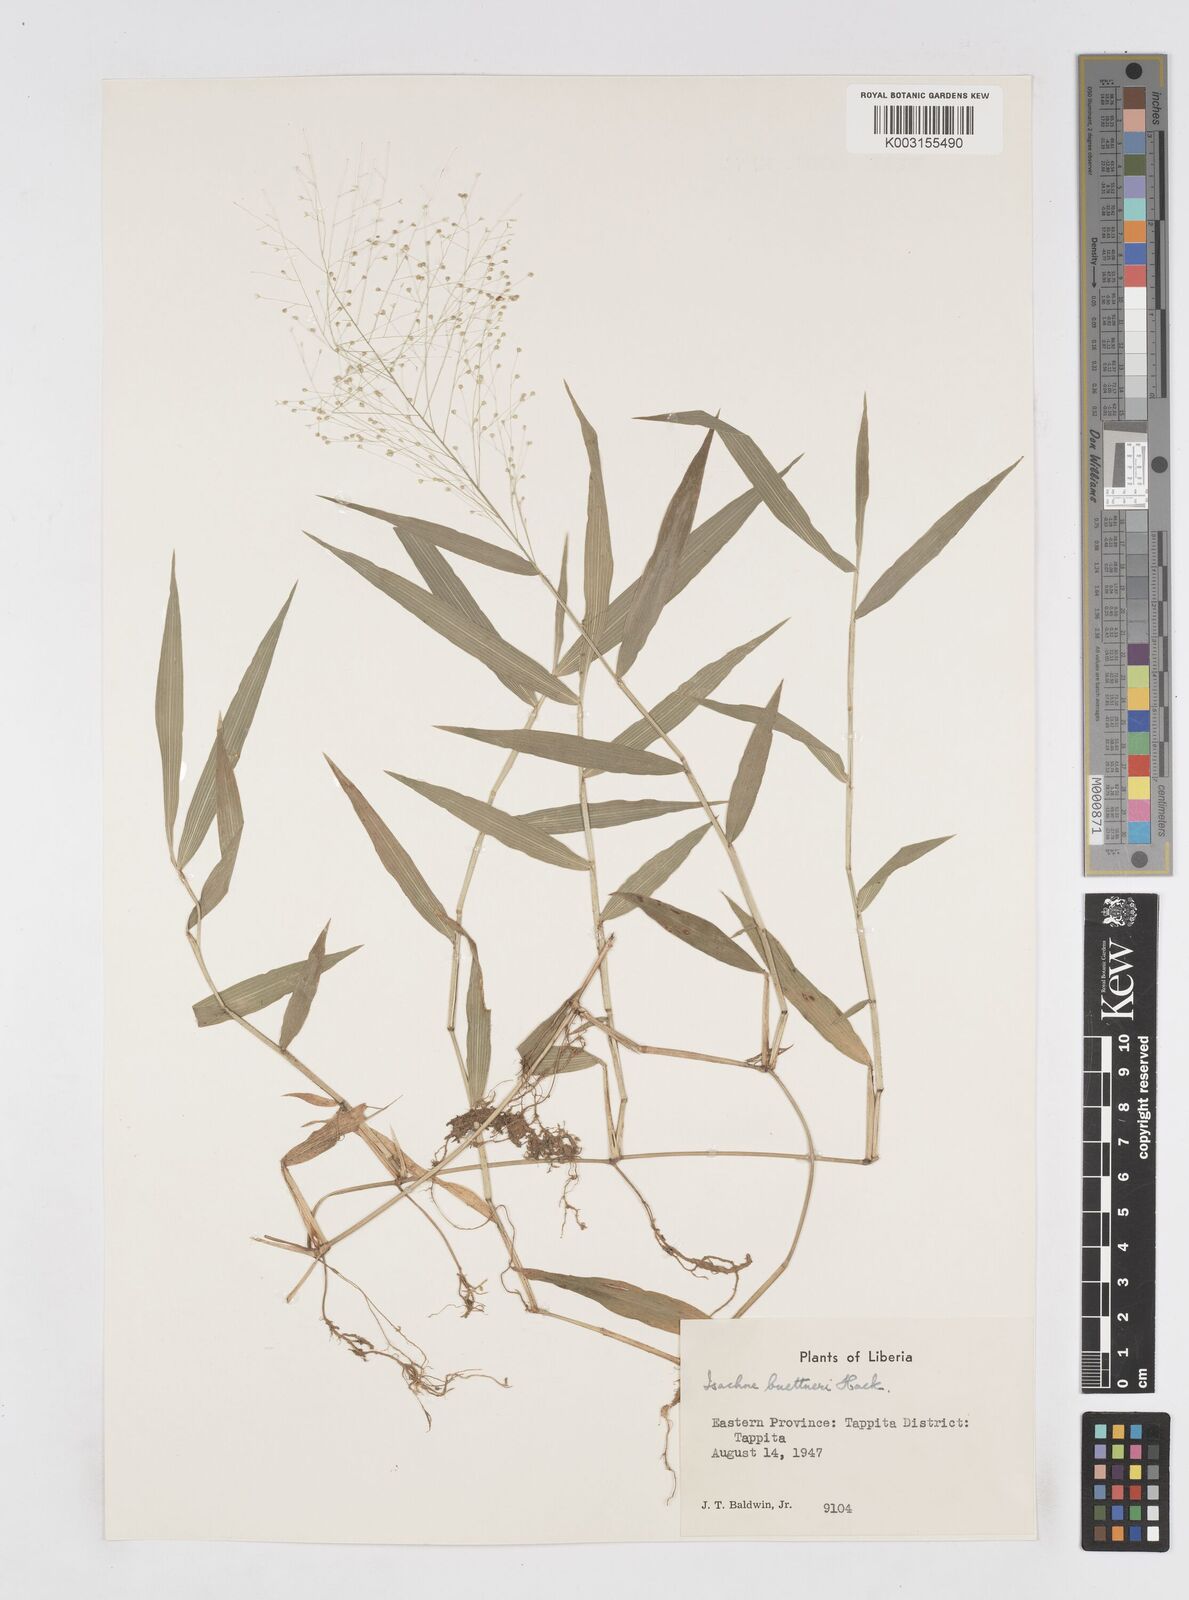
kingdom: Plantae
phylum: Tracheophyta
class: Liliopsida
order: Poales
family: Poaceae
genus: Isachne
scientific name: Isachne albens
